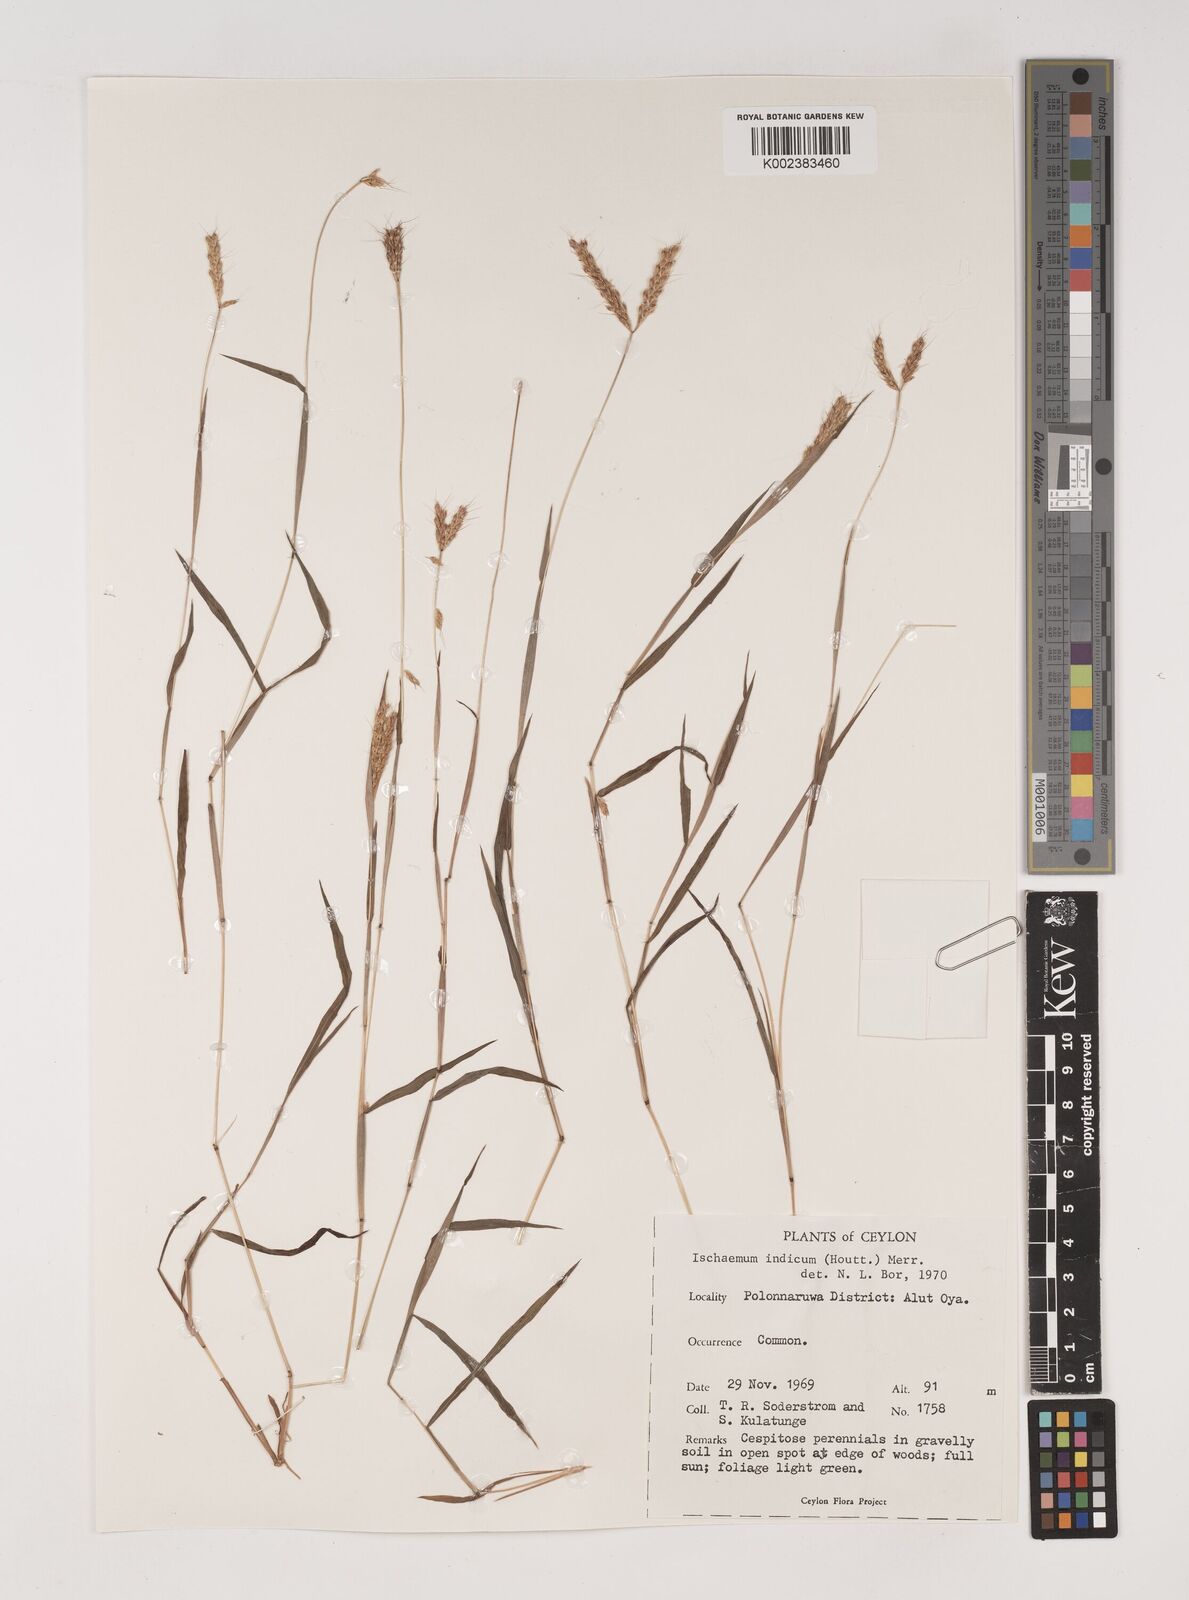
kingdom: Plantae
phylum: Tracheophyta
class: Liliopsida
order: Poales
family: Poaceae
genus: Polytrias
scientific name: Polytrias indica
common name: Indian murainagrass
